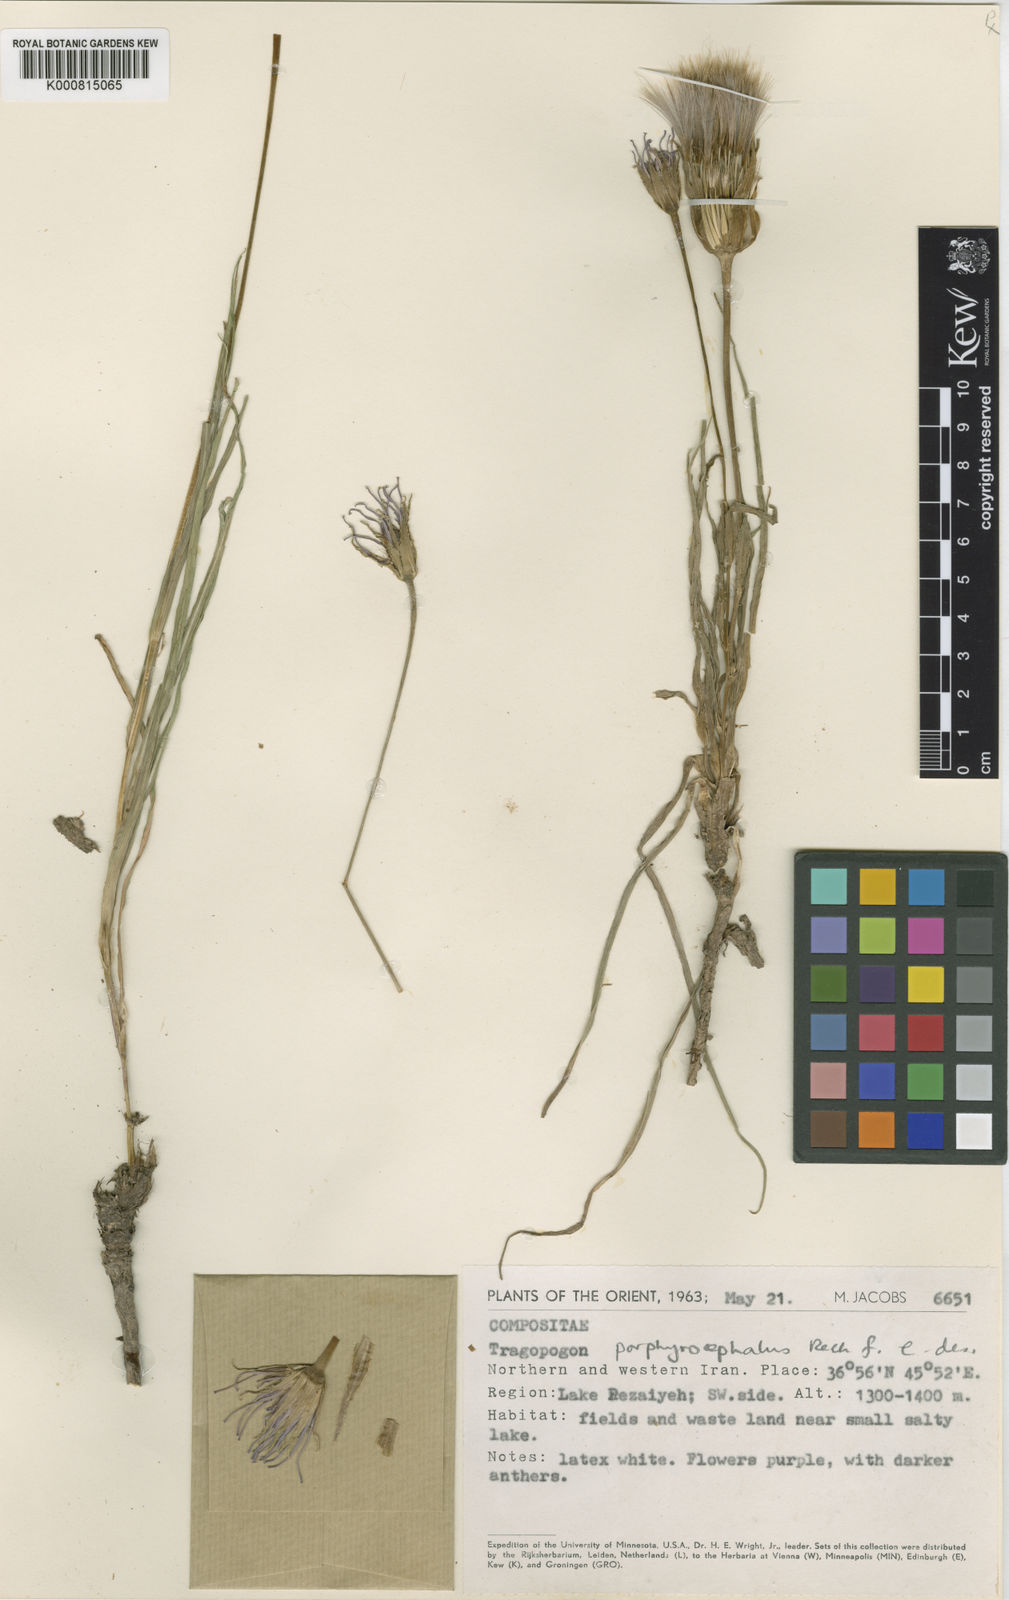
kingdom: Plantae
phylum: Tracheophyta
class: Magnoliopsida
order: Asterales
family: Asteraceae
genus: Tragopogon
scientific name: Tragopogon porphyrocephalus
